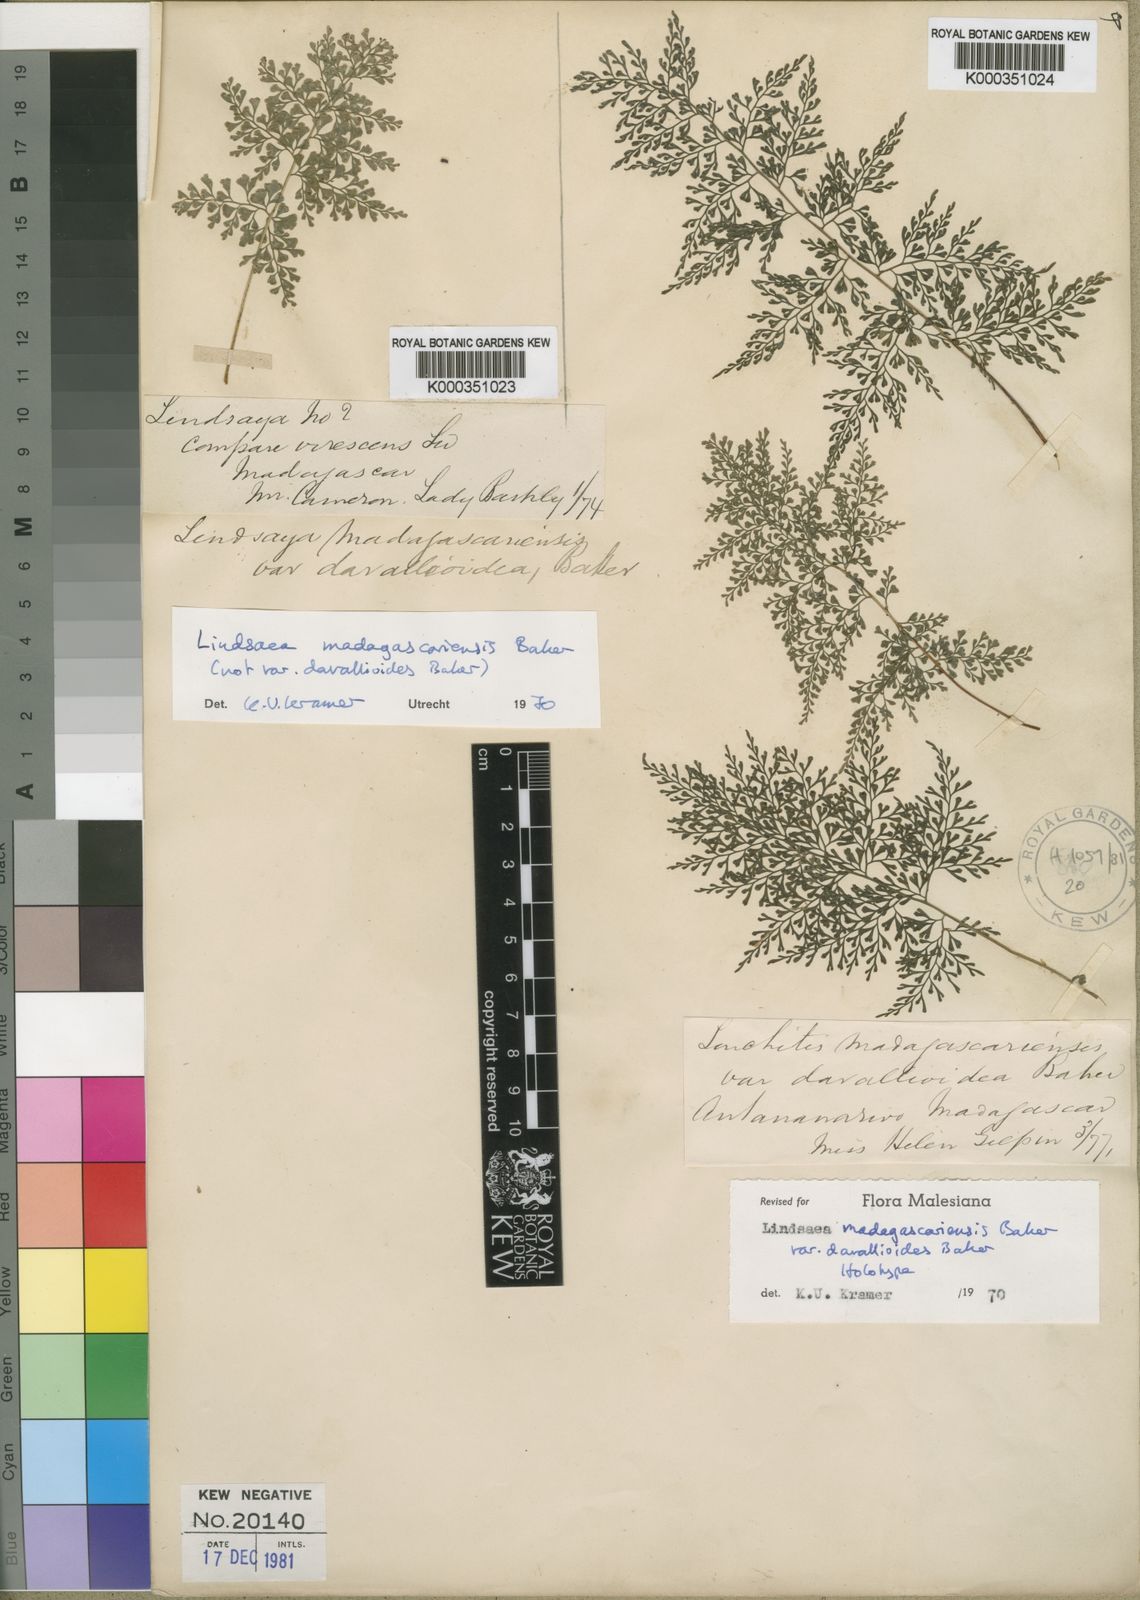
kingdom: Plantae
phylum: Tracheophyta
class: Polypodiopsida
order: Polypodiales
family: Lindsaeaceae
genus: Odontosoria
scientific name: Odontosoria madagascariensis
